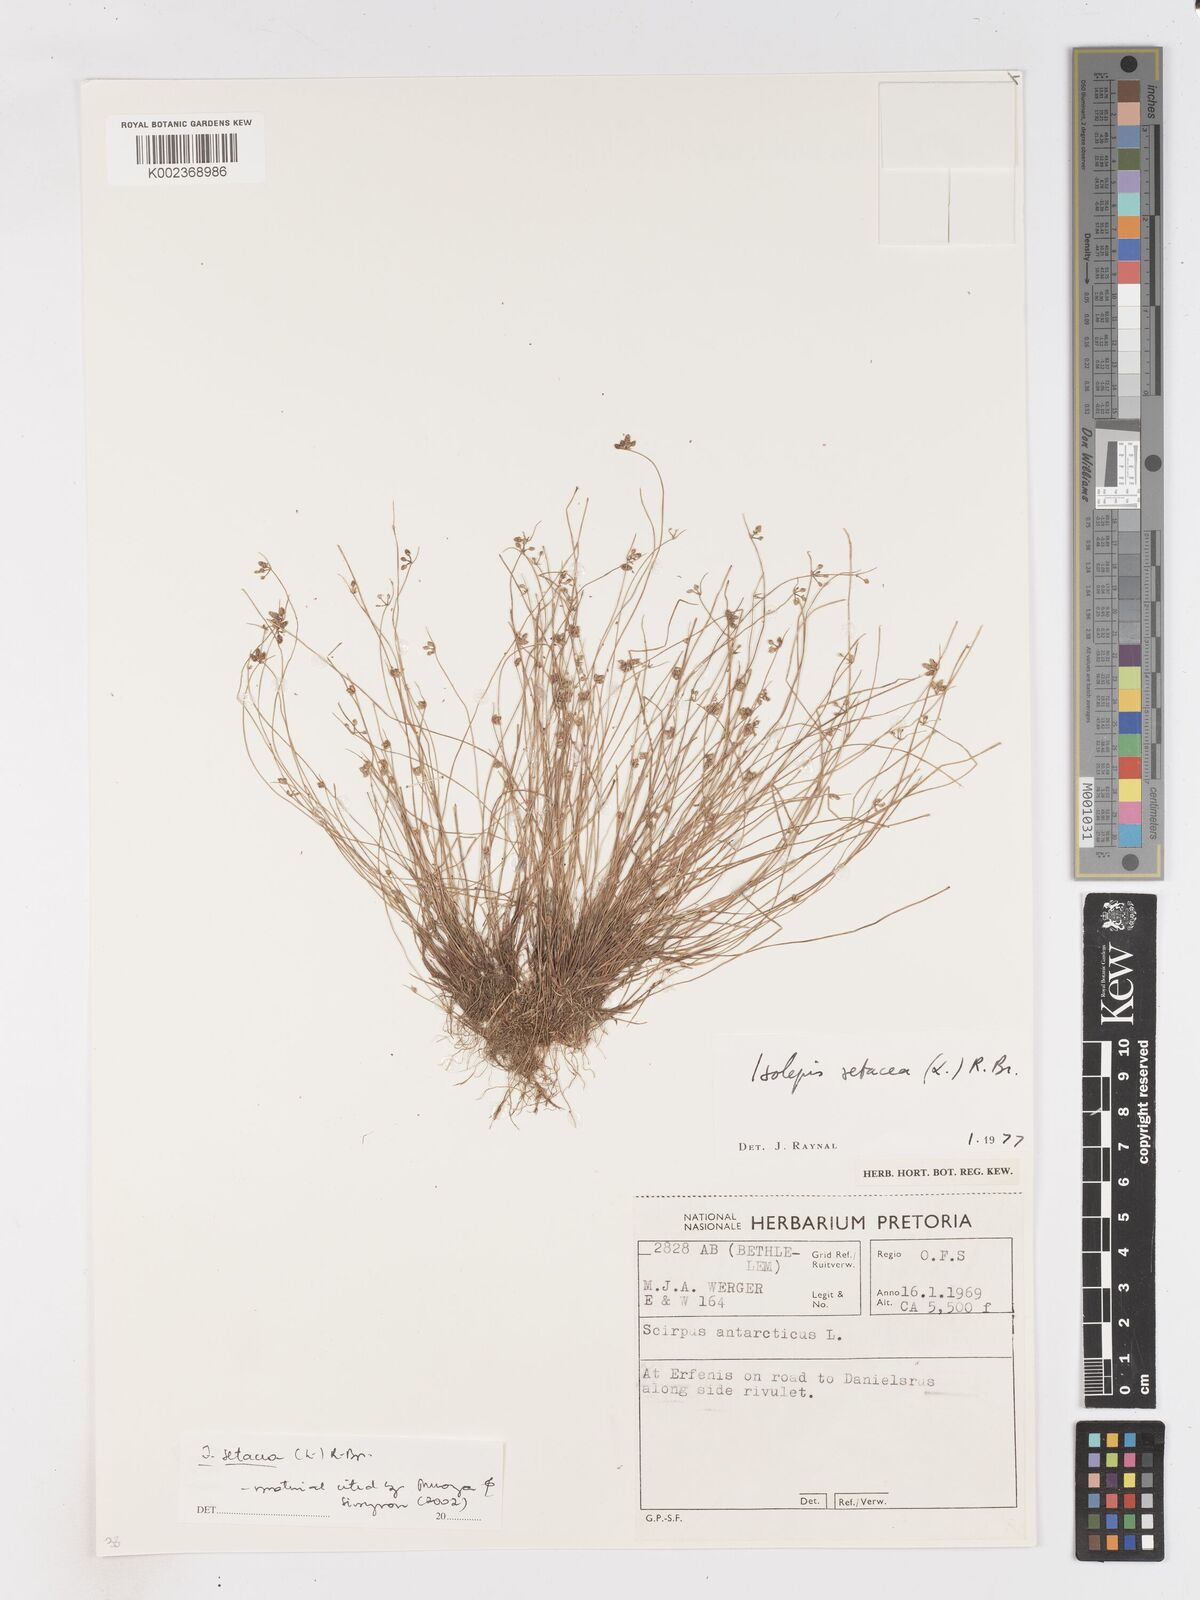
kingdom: Plantae
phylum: Tracheophyta
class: Liliopsida
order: Poales
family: Cyperaceae
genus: Isolepis
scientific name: Isolepis setacea
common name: Bristle club-rush
